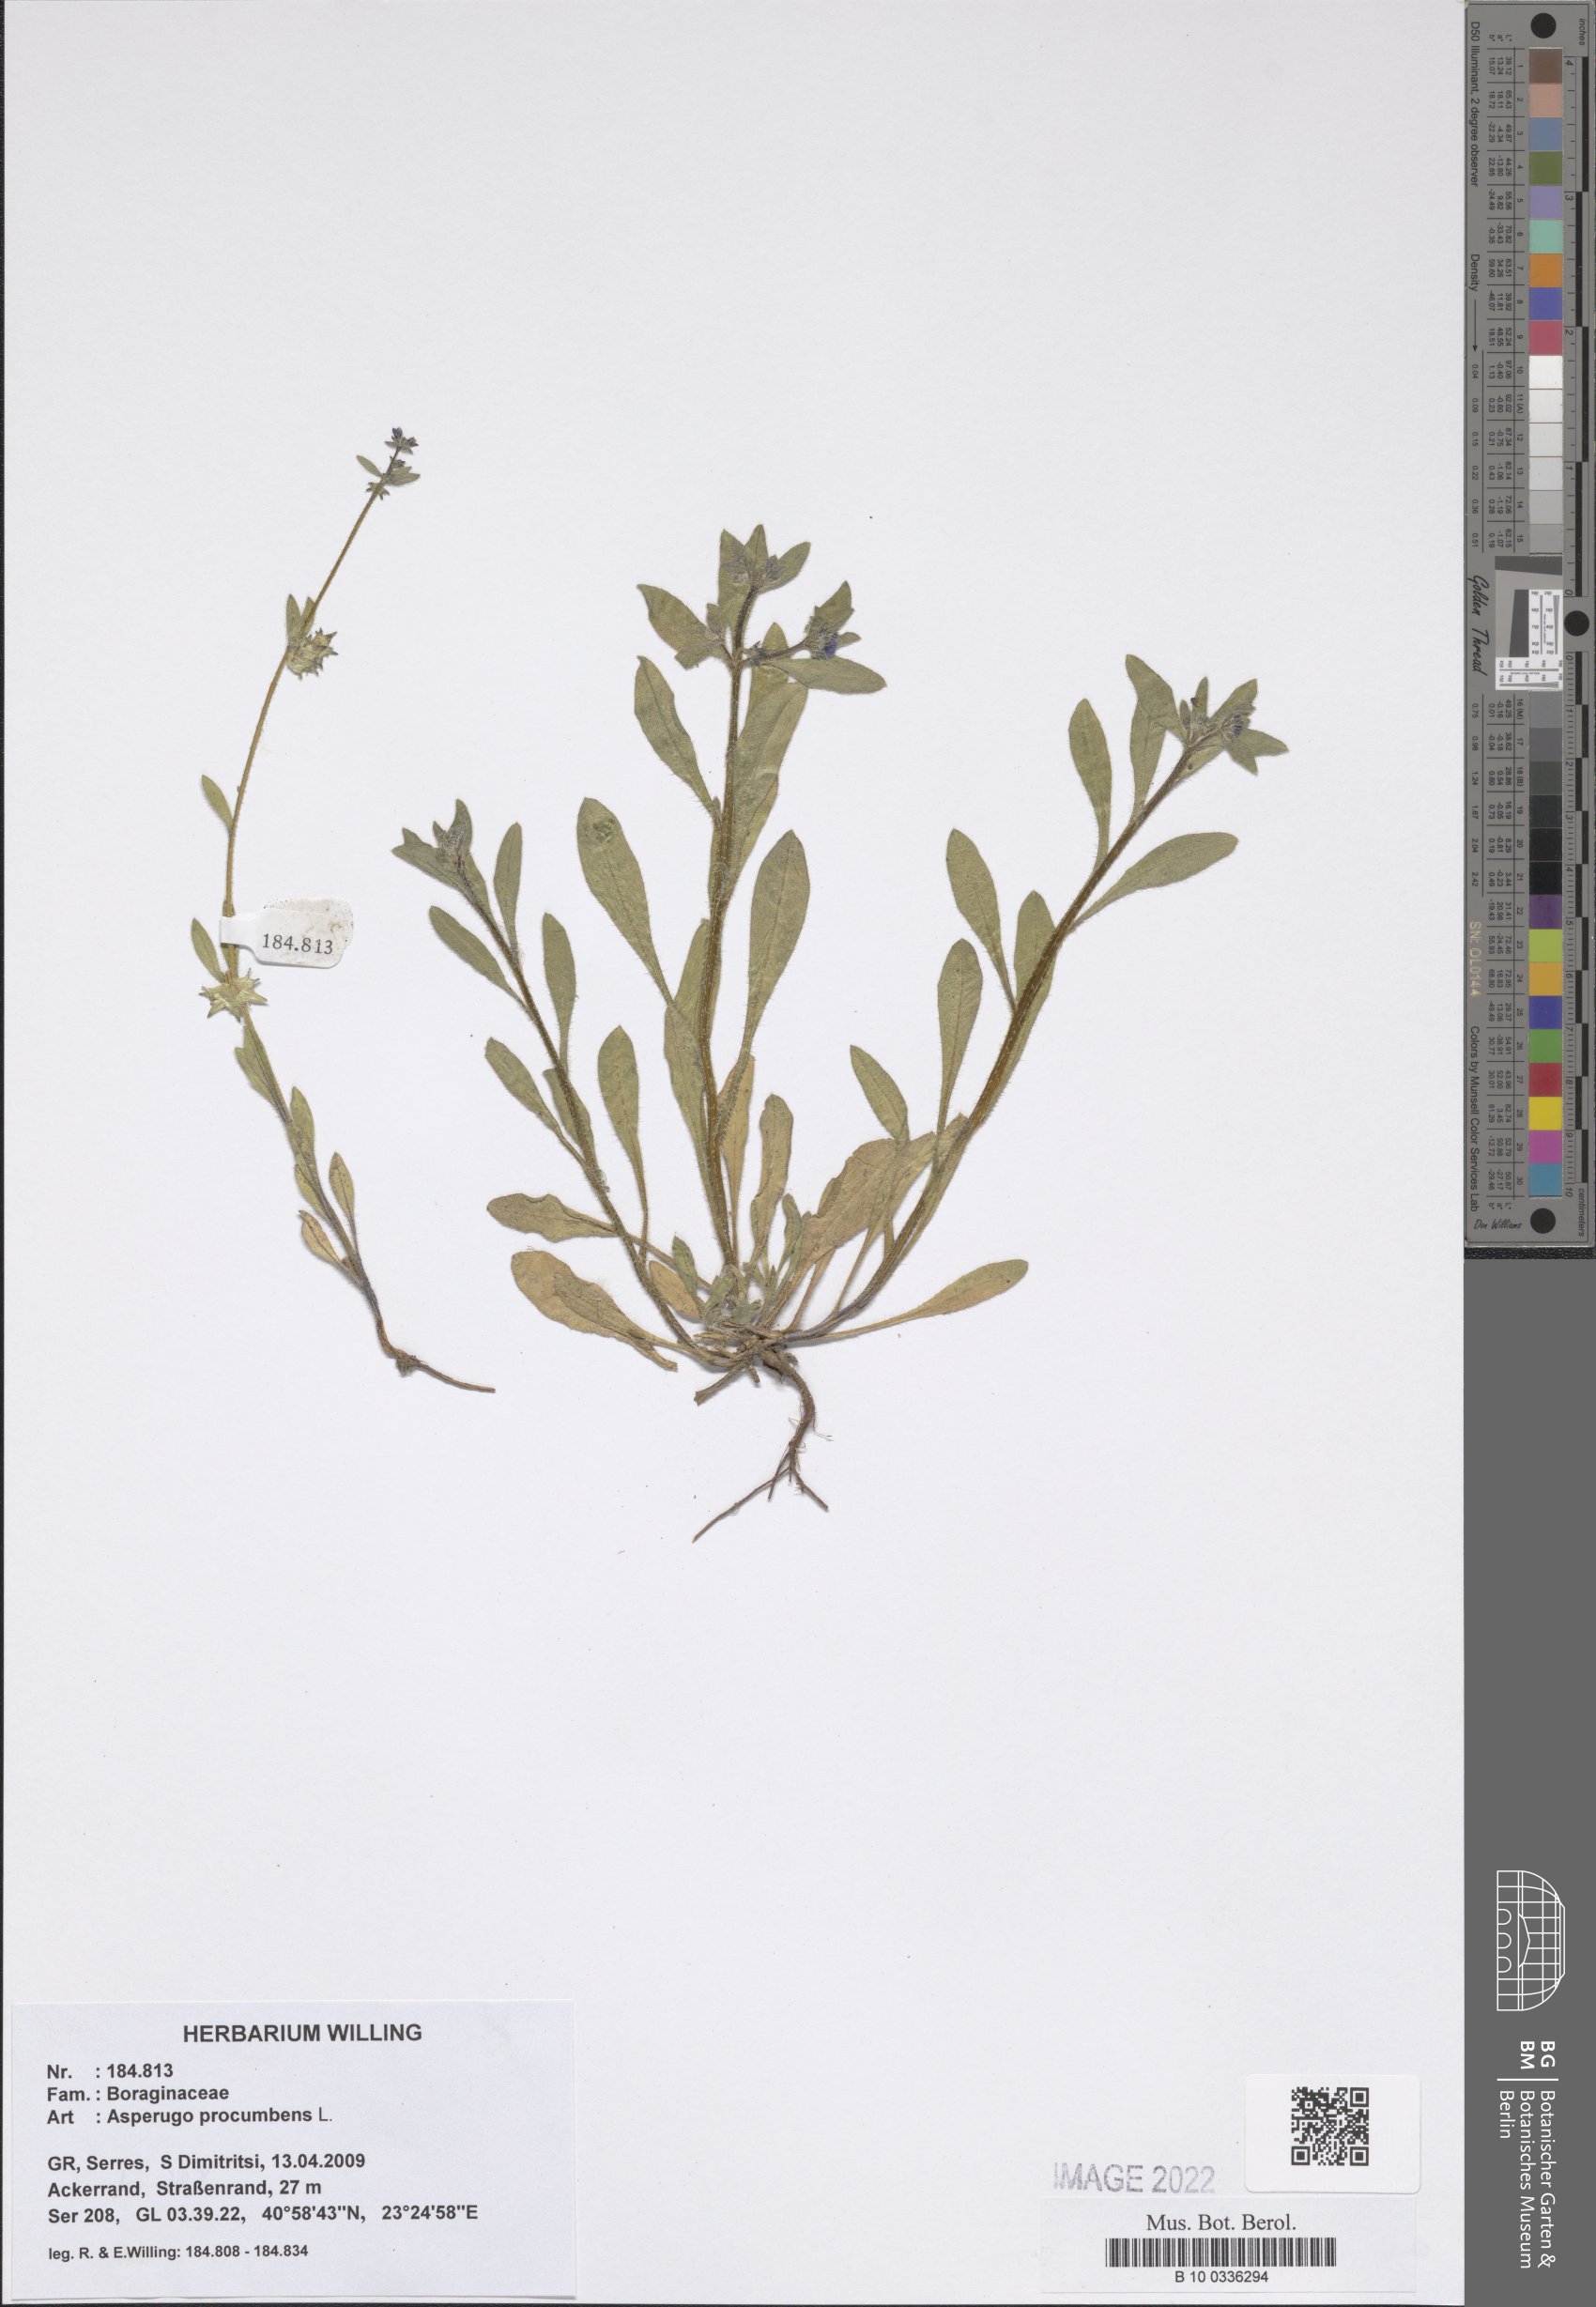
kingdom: Plantae
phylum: Tracheophyta
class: Magnoliopsida
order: Boraginales
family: Boraginaceae
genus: Asperugo
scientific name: Asperugo procumbens
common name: Madwort
